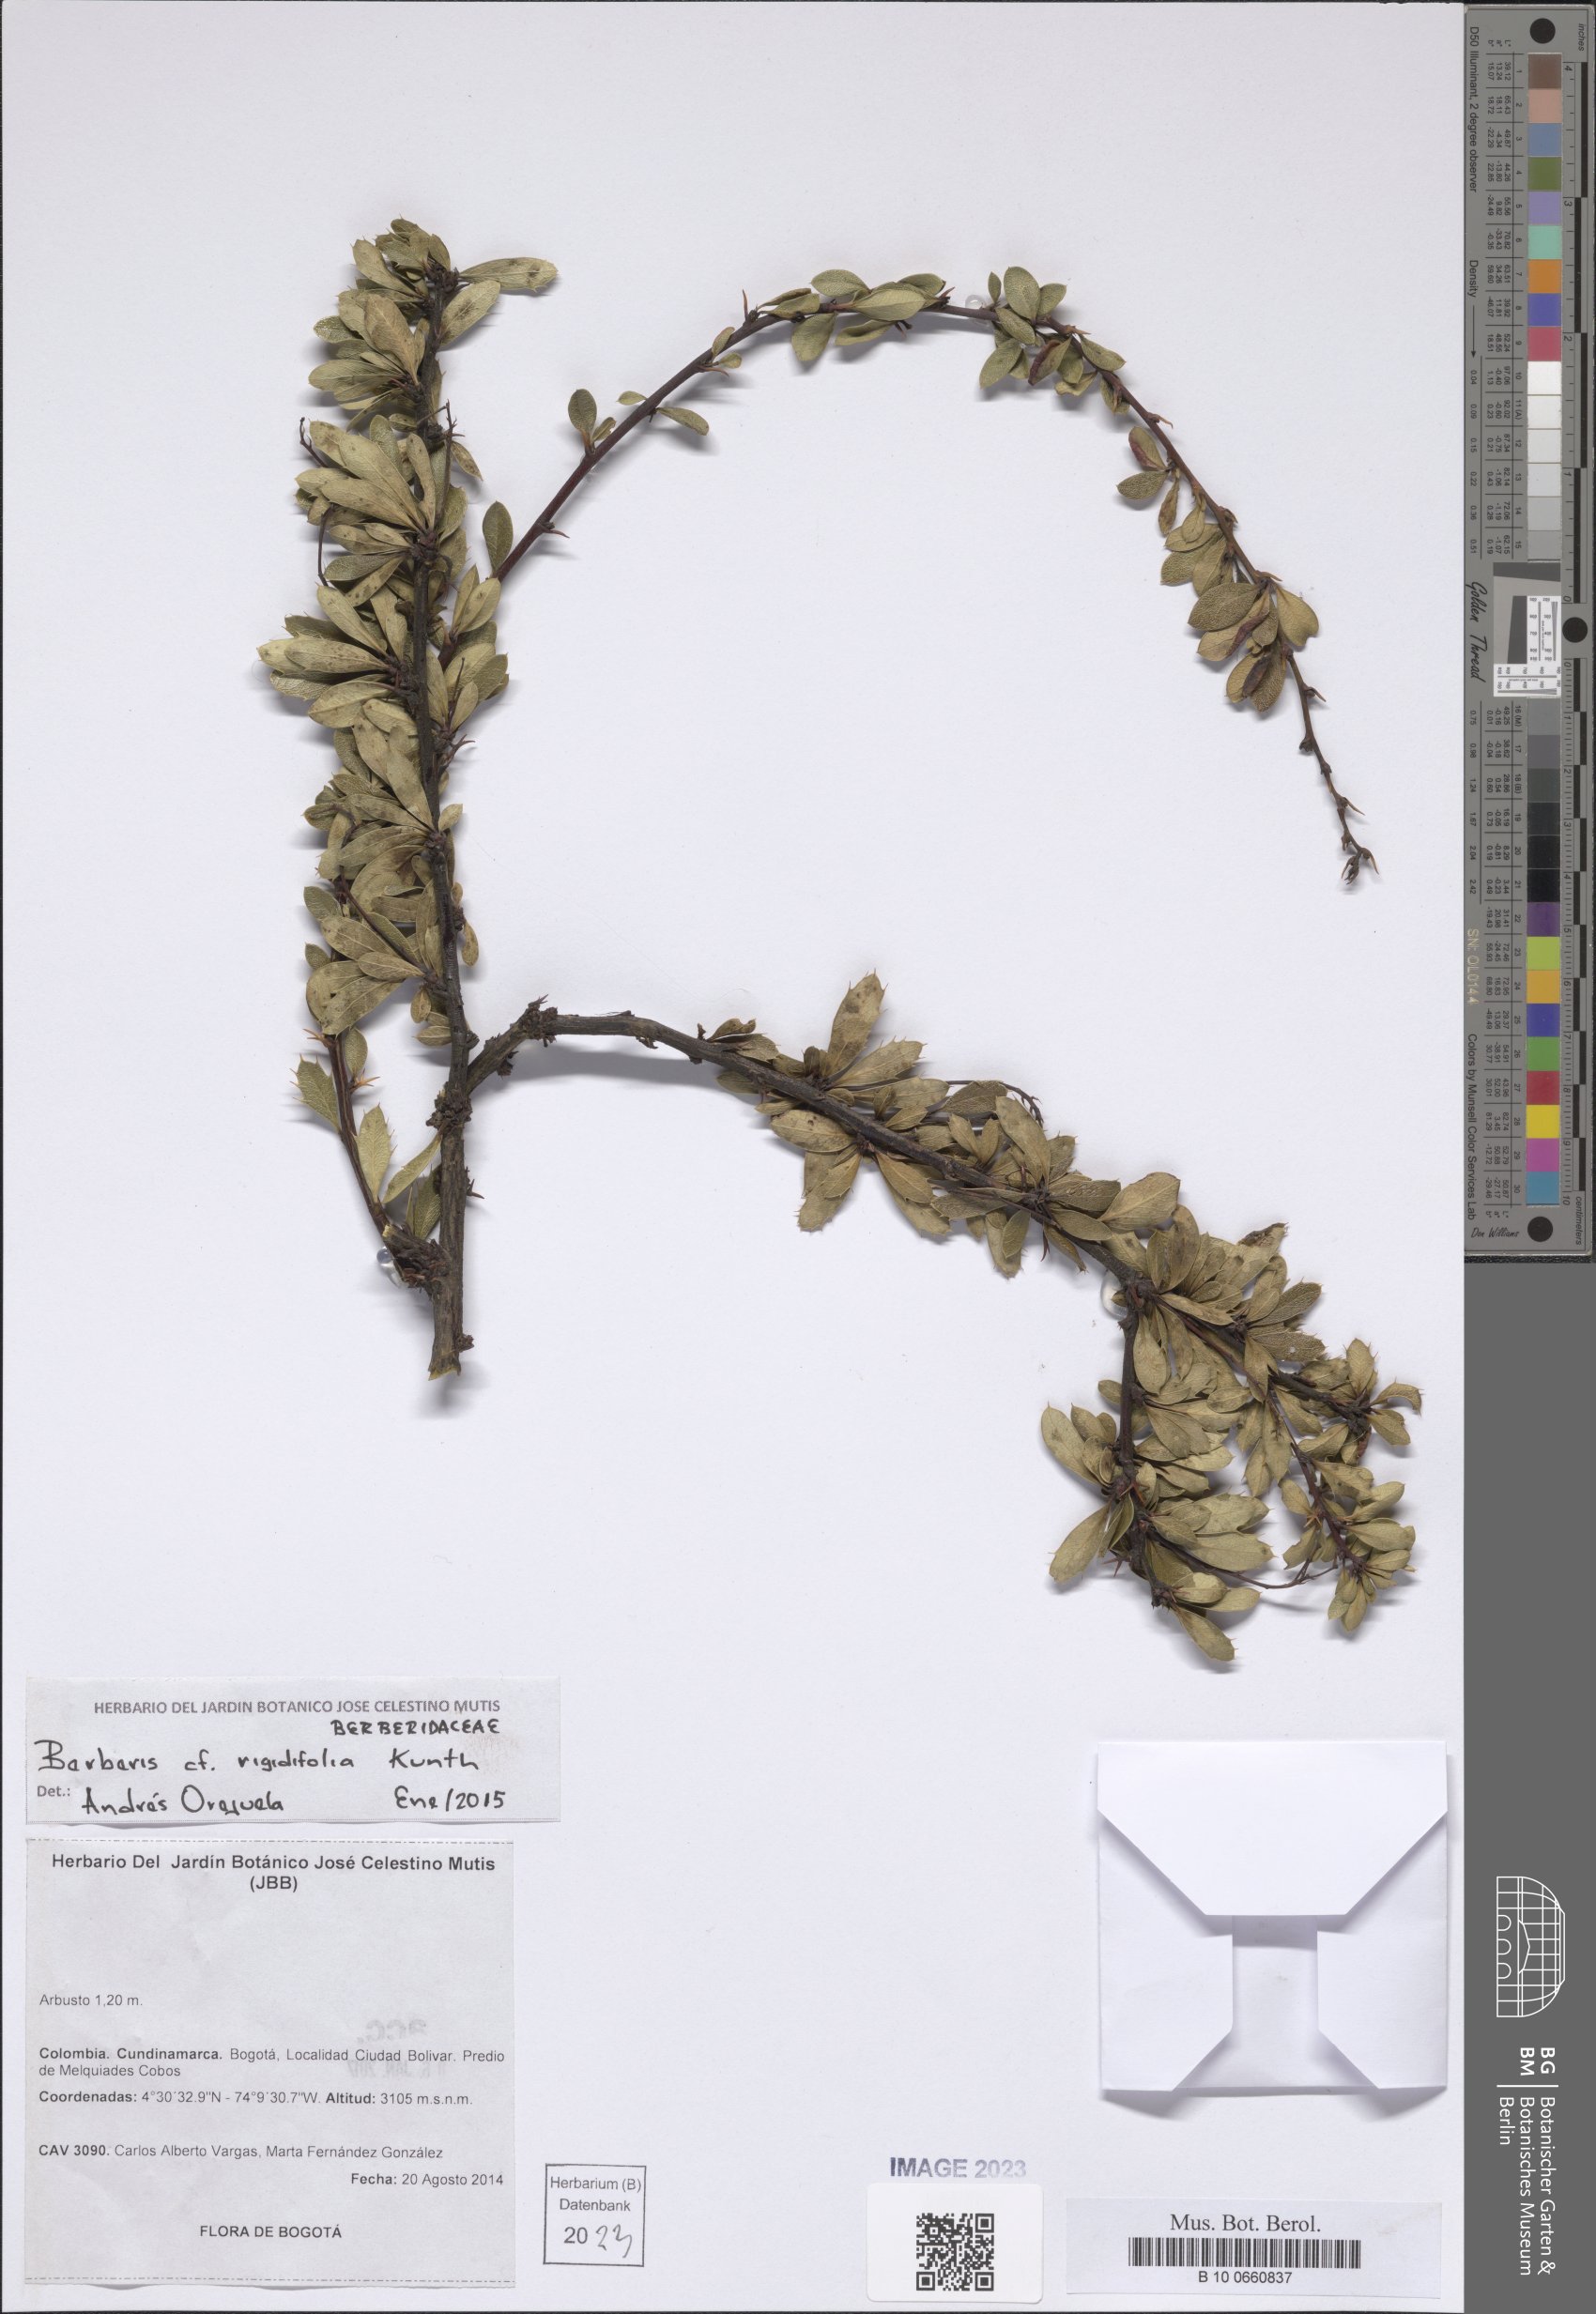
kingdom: Plantae
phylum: Tracheophyta
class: Magnoliopsida
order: Ranunculales
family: Berberidaceae
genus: Berberis
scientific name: Berberis rigidifolia
